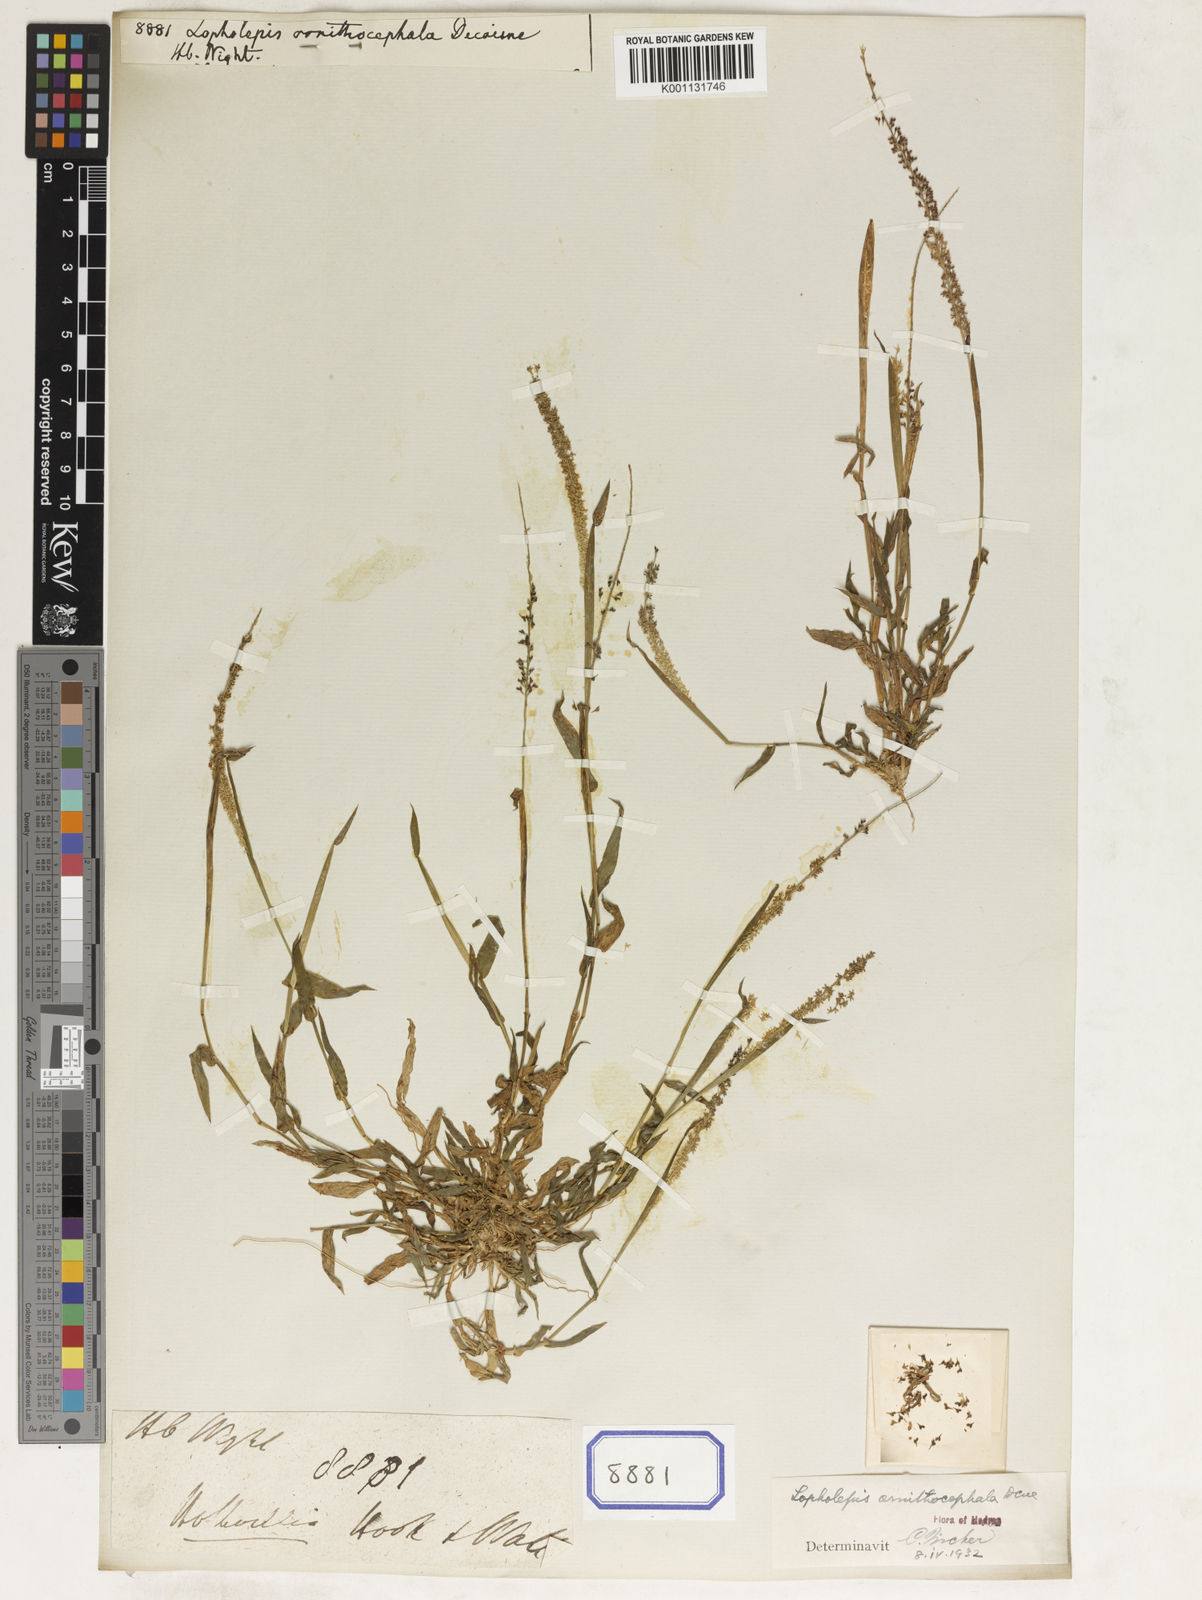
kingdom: Plantae
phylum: Tracheophyta
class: Liliopsida
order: Poales
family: Poaceae
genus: Perotis
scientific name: Perotis ornithocephala
